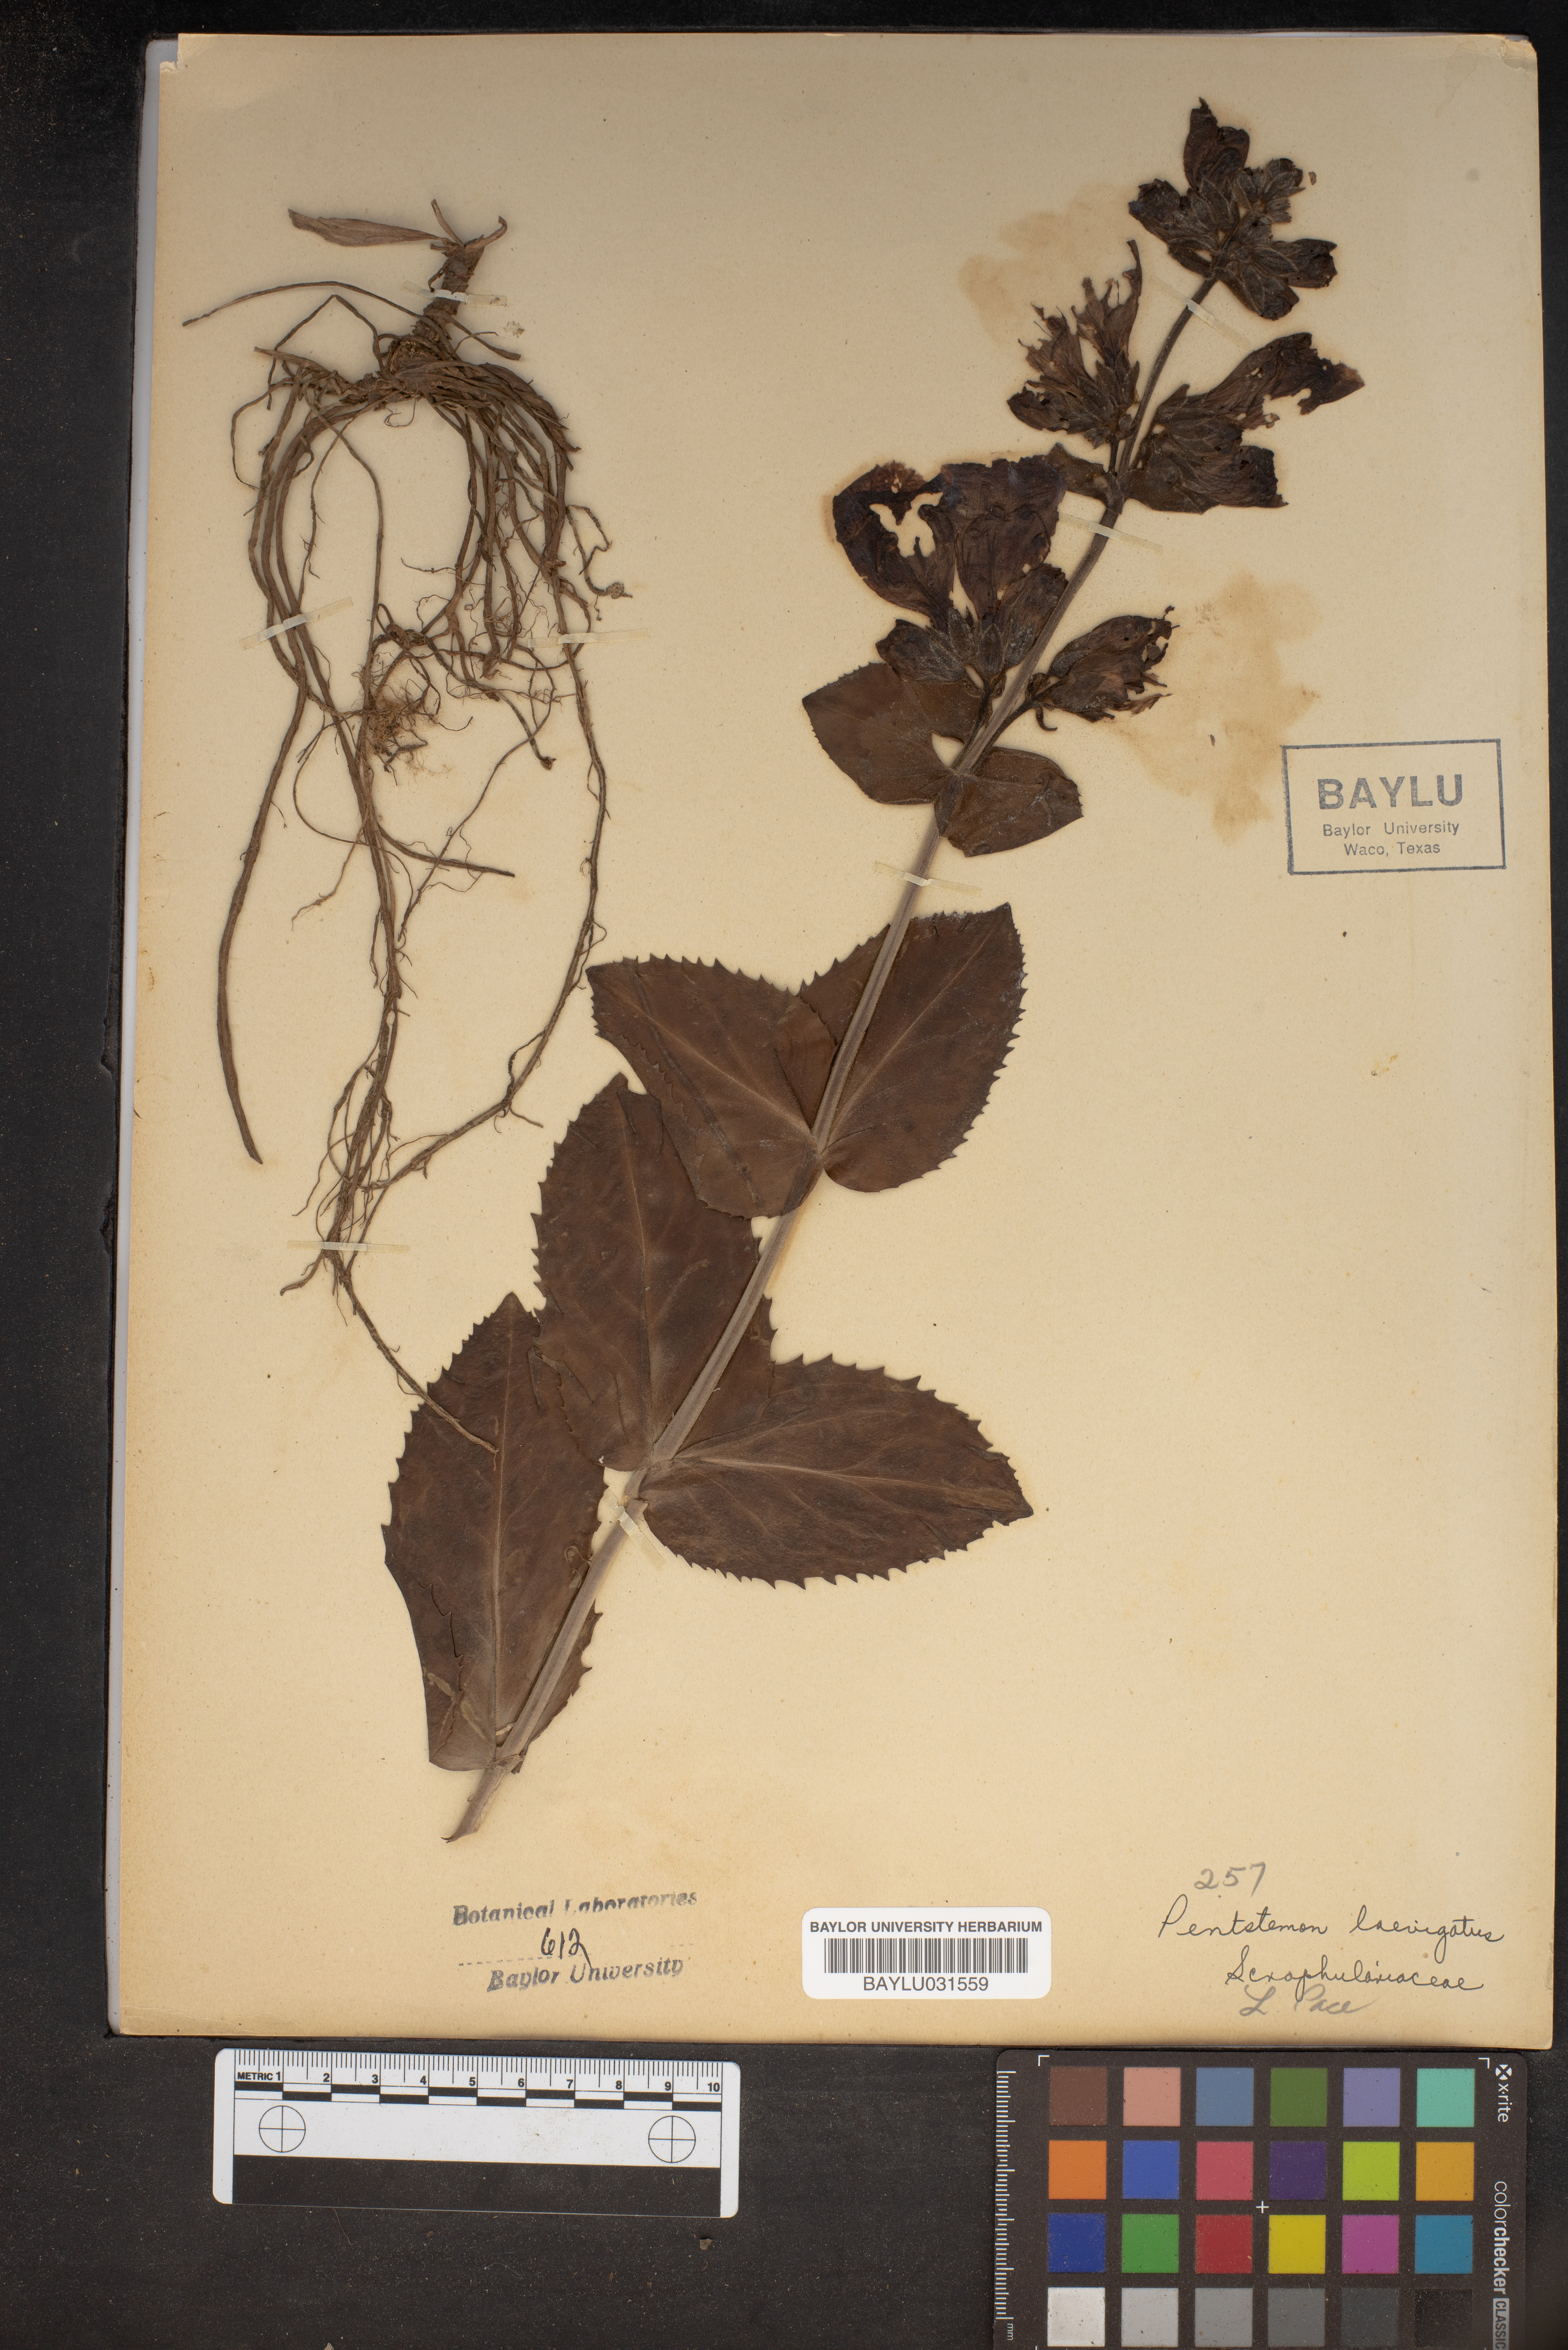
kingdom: Plantae
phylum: Tracheophyta
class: Magnoliopsida
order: Lamiales
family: Plantaginaceae
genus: Penstemon
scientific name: Penstemon laevigatus
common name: Eastern beardtongue
